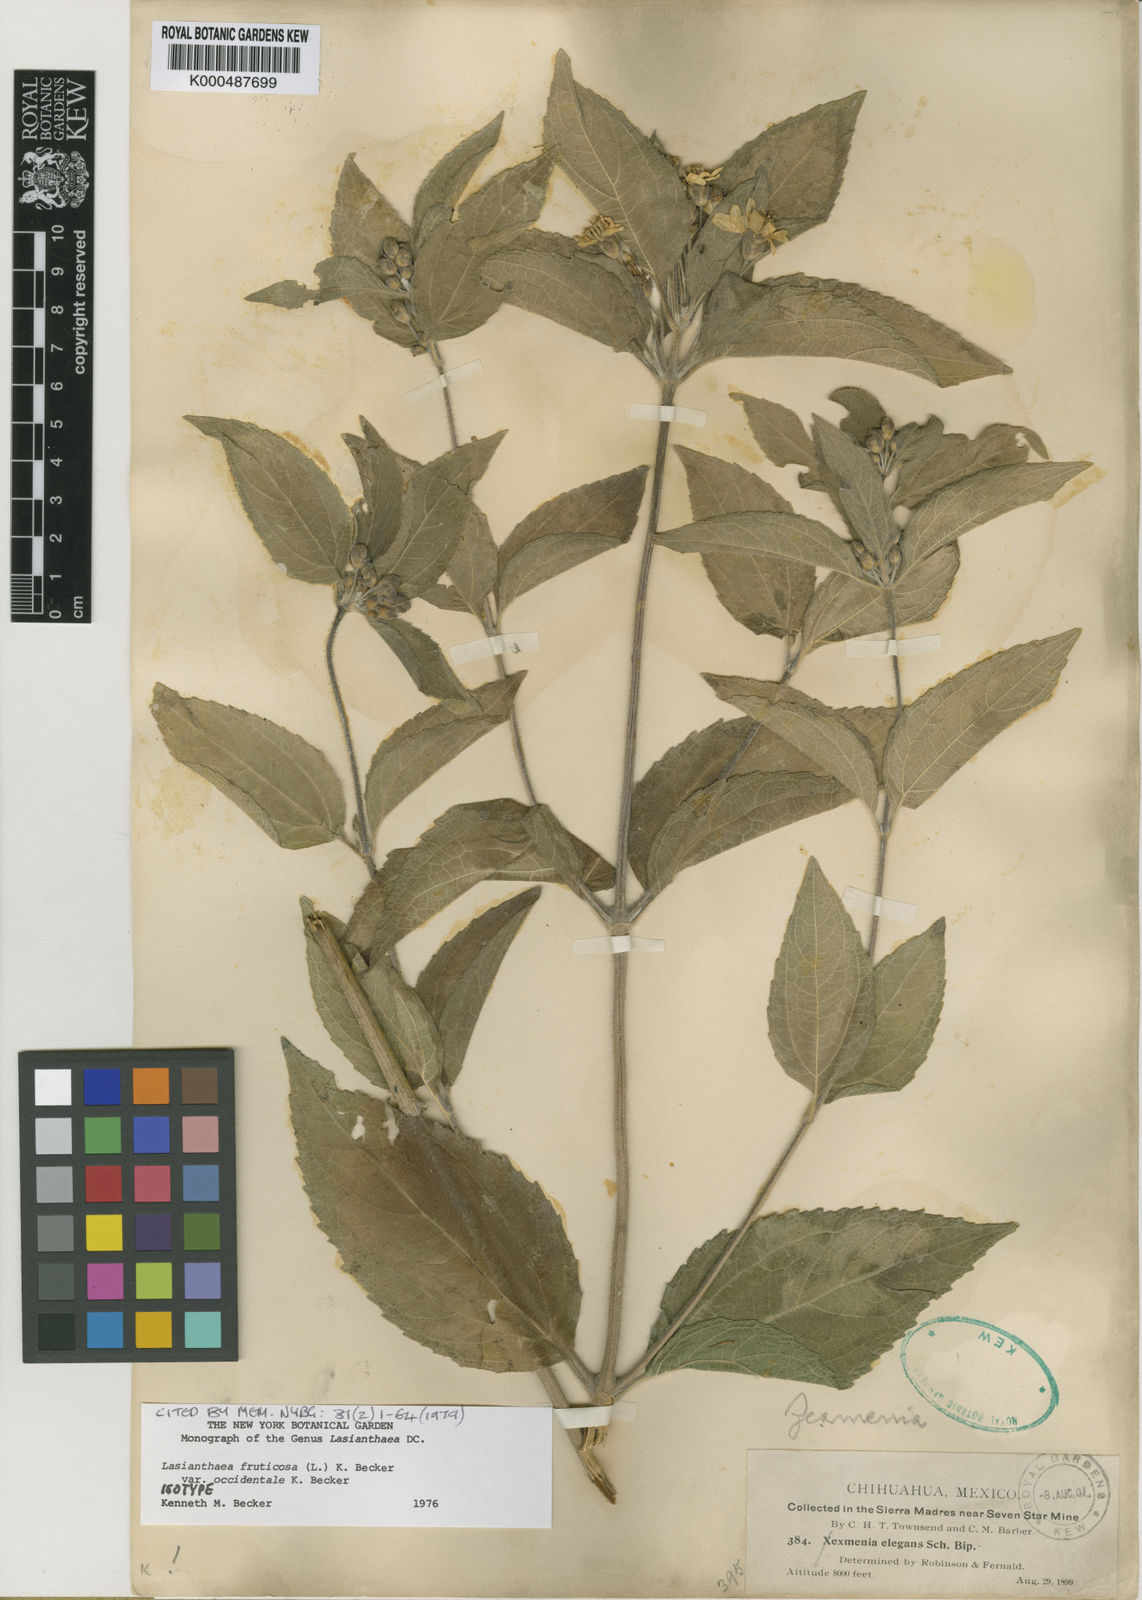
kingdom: Plantae
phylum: Tracheophyta
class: Magnoliopsida
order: Asterales
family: Asteraceae
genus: Lasianthaea
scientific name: Lasianthaea fruticosa
